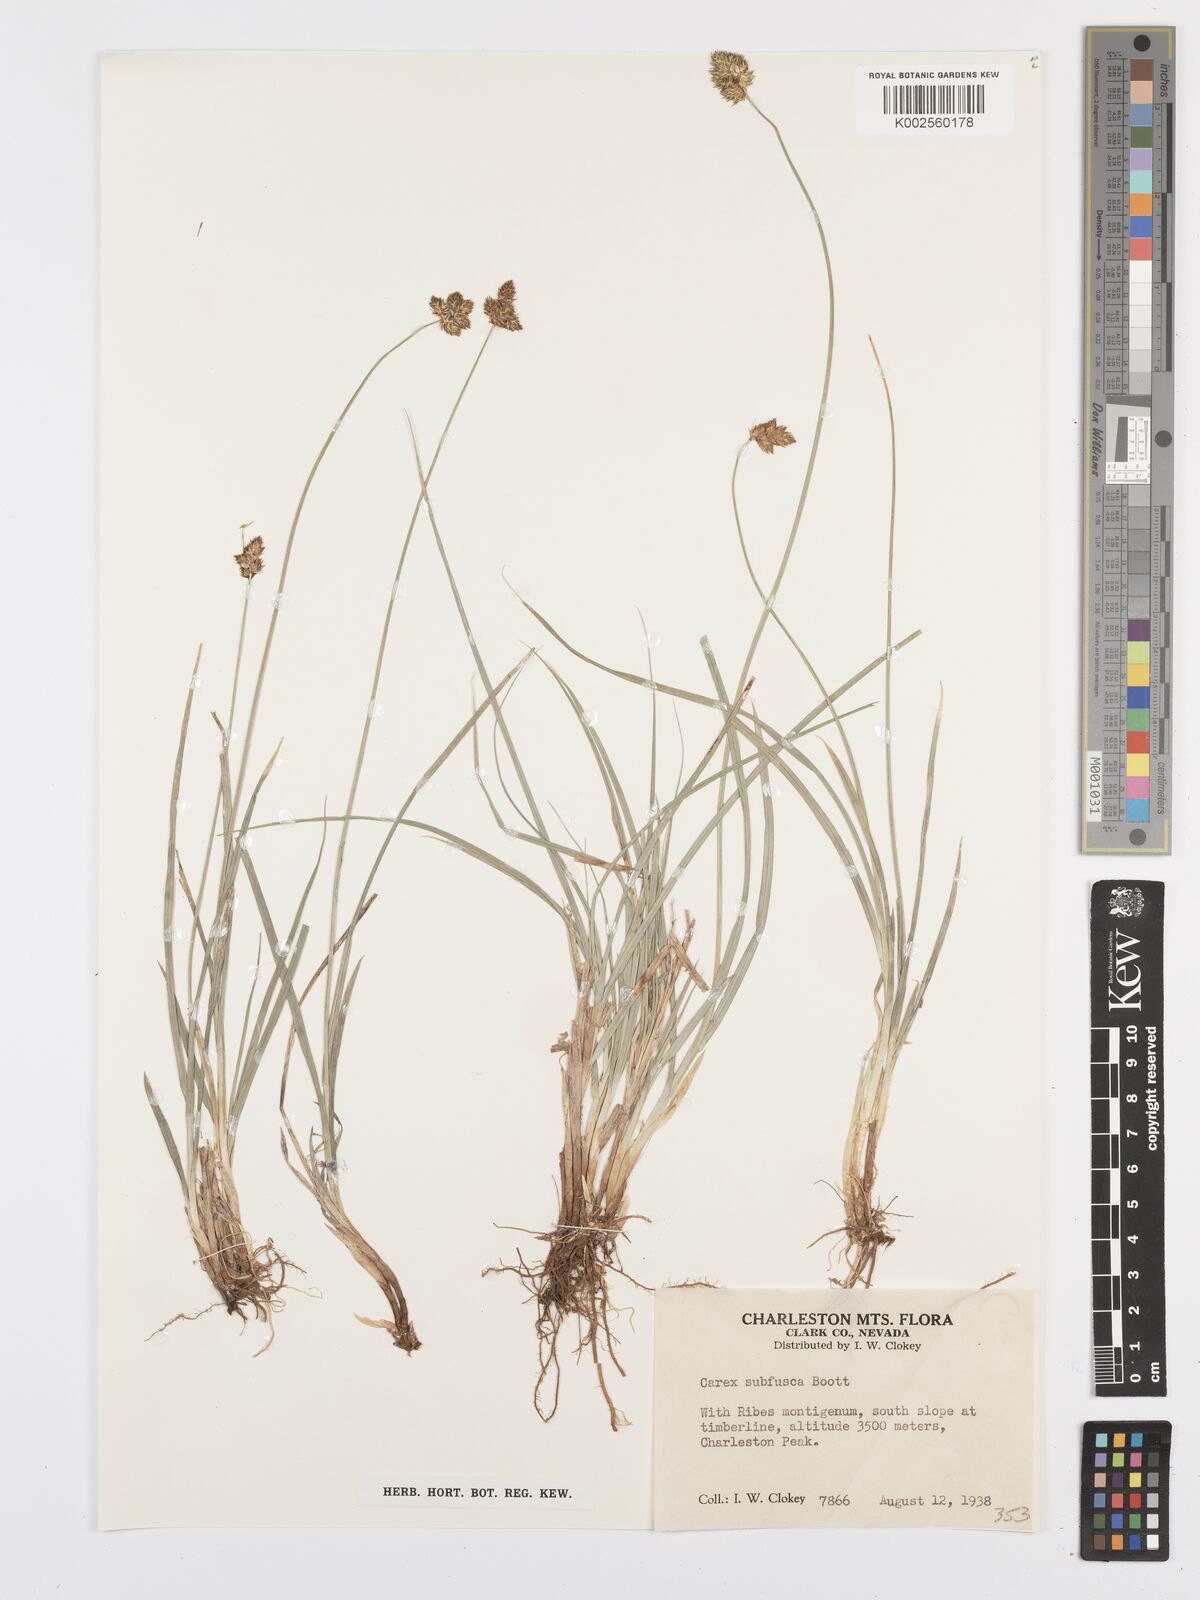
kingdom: Plantae
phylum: Tracheophyta
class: Liliopsida
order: Poales
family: Cyperaceae
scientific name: Cyperaceae
